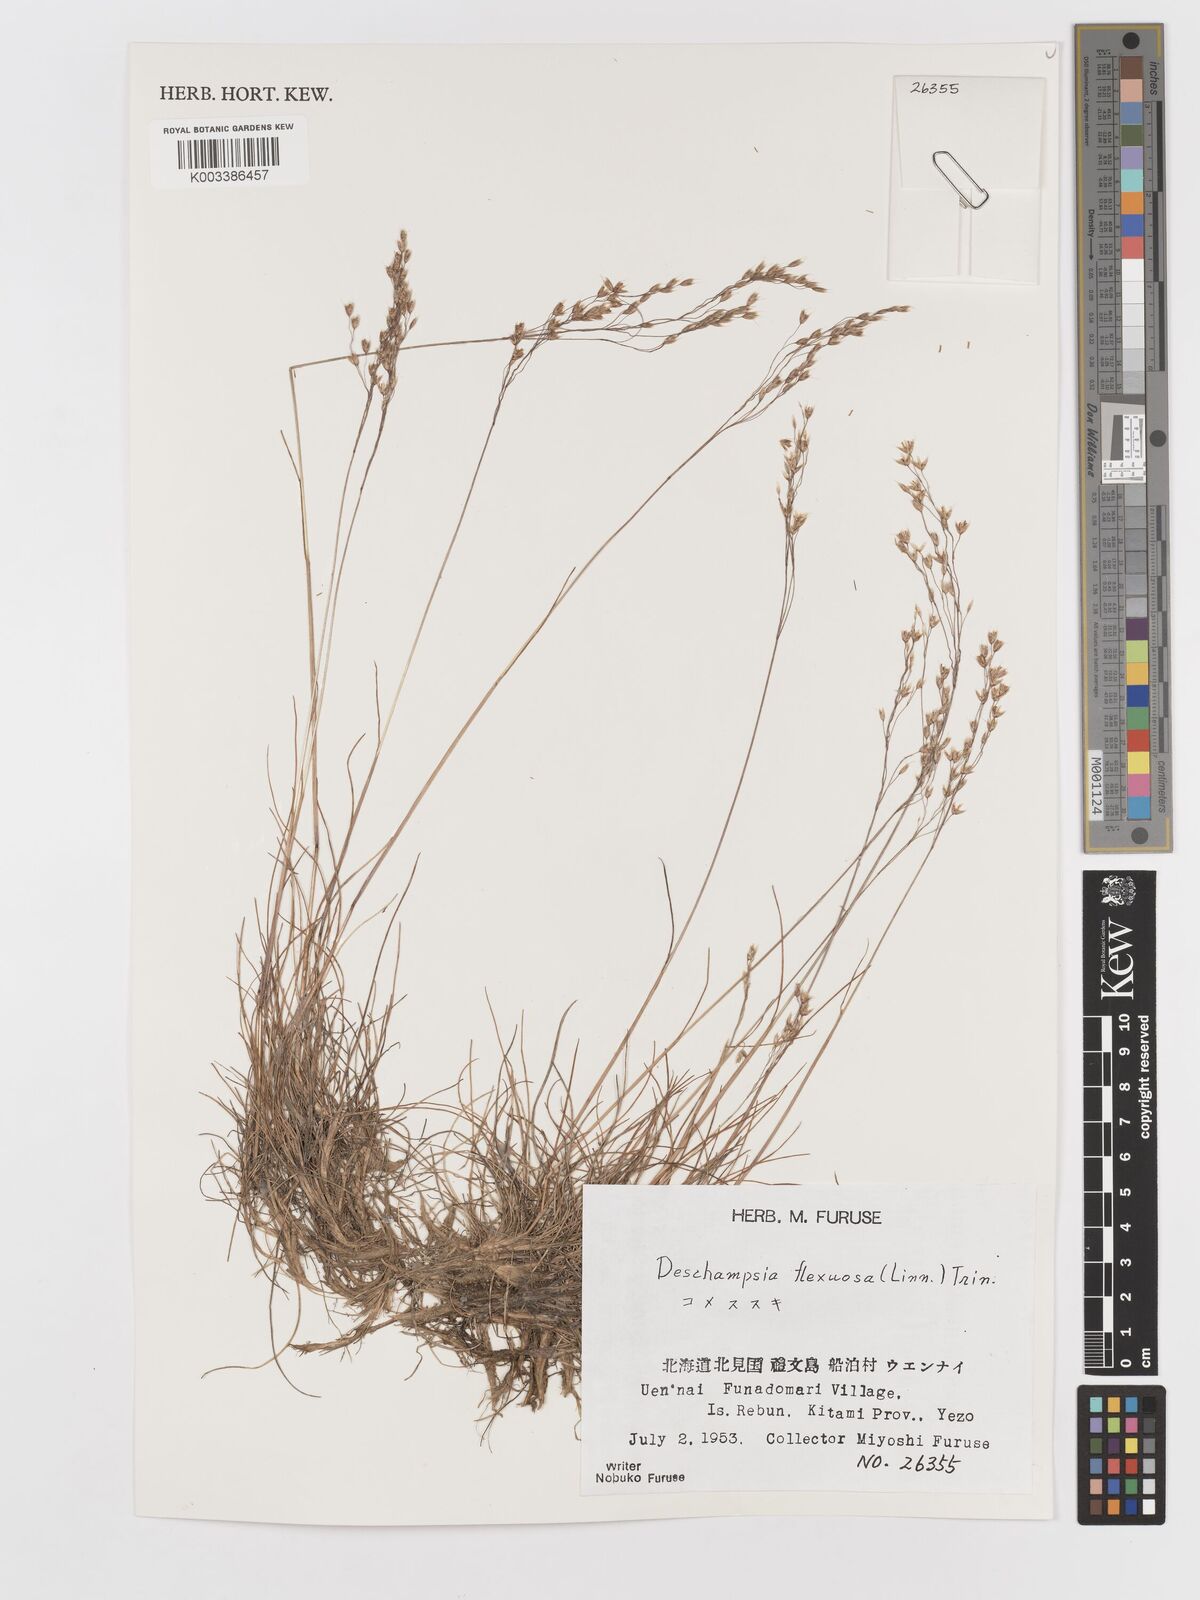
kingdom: Plantae
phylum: Tracheophyta
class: Liliopsida
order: Poales
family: Poaceae
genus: Avenella
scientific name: Avenella flexuosa
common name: Wavy hairgrass
